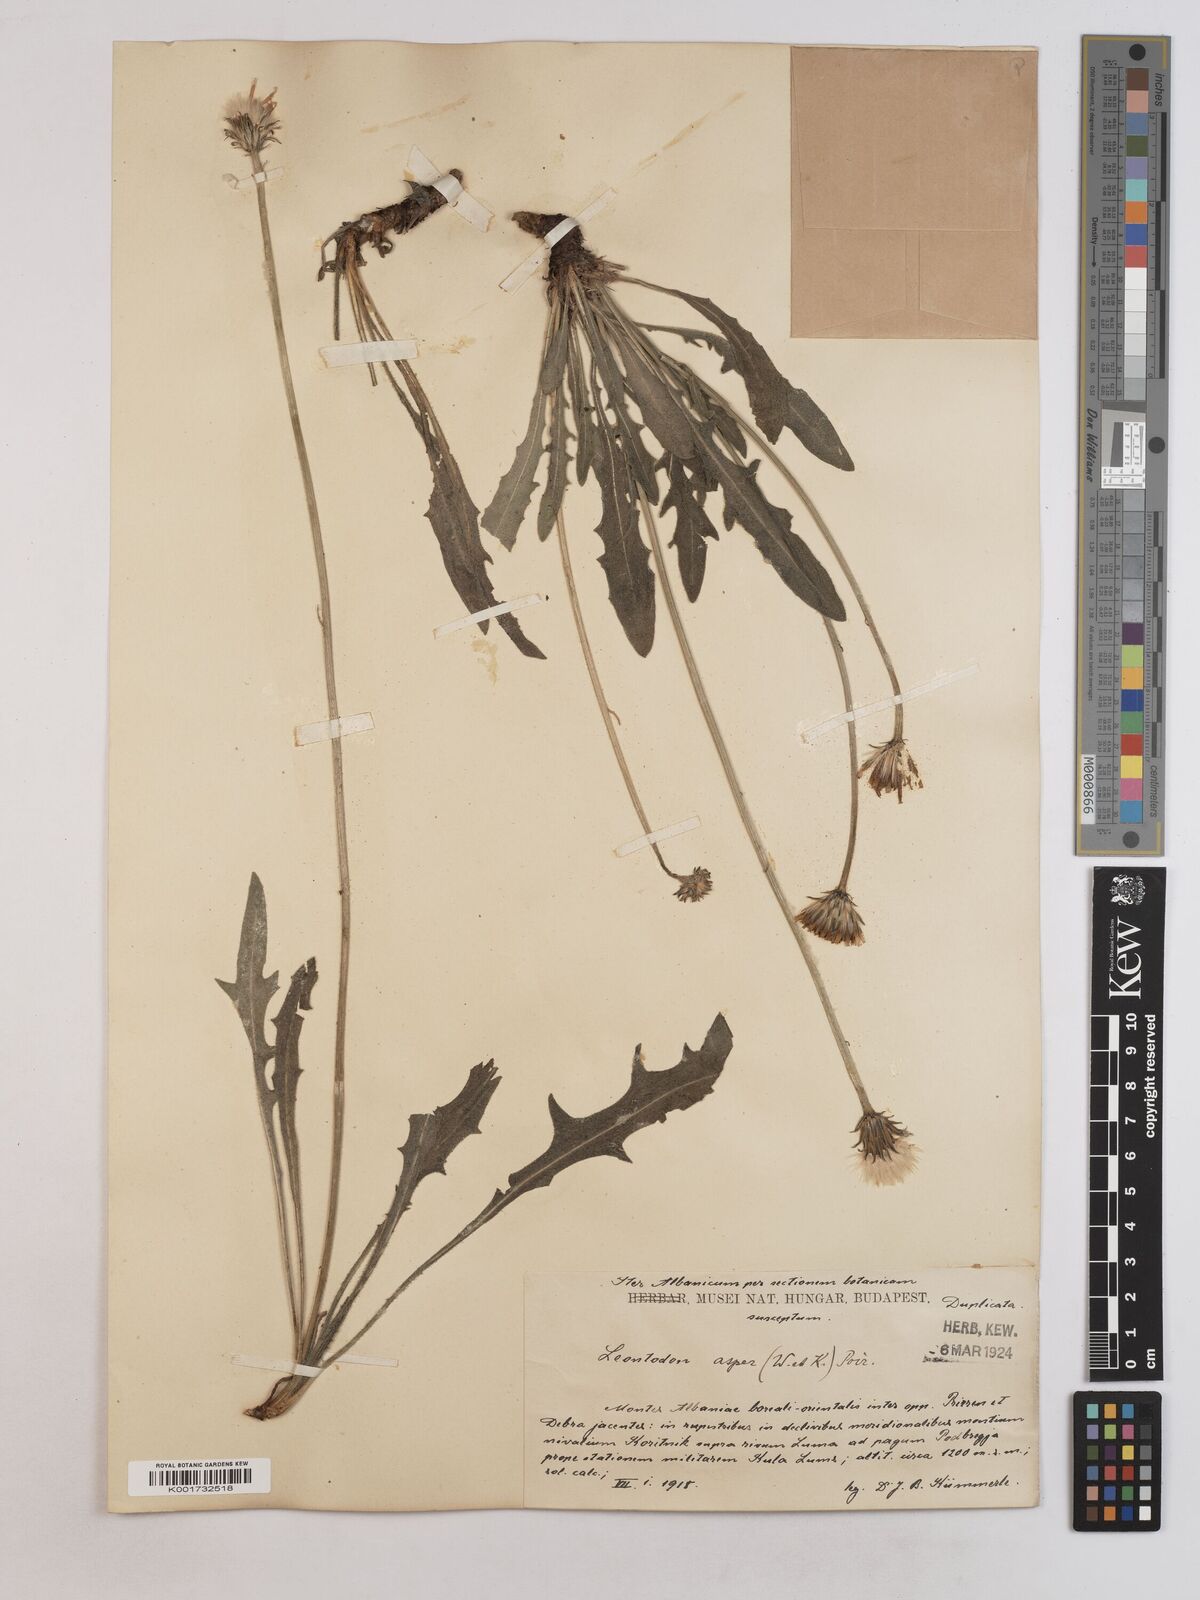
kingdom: Plantae
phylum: Tracheophyta
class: Magnoliopsida
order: Asterales
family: Asteraceae
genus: Leontodon
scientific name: Leontodon
